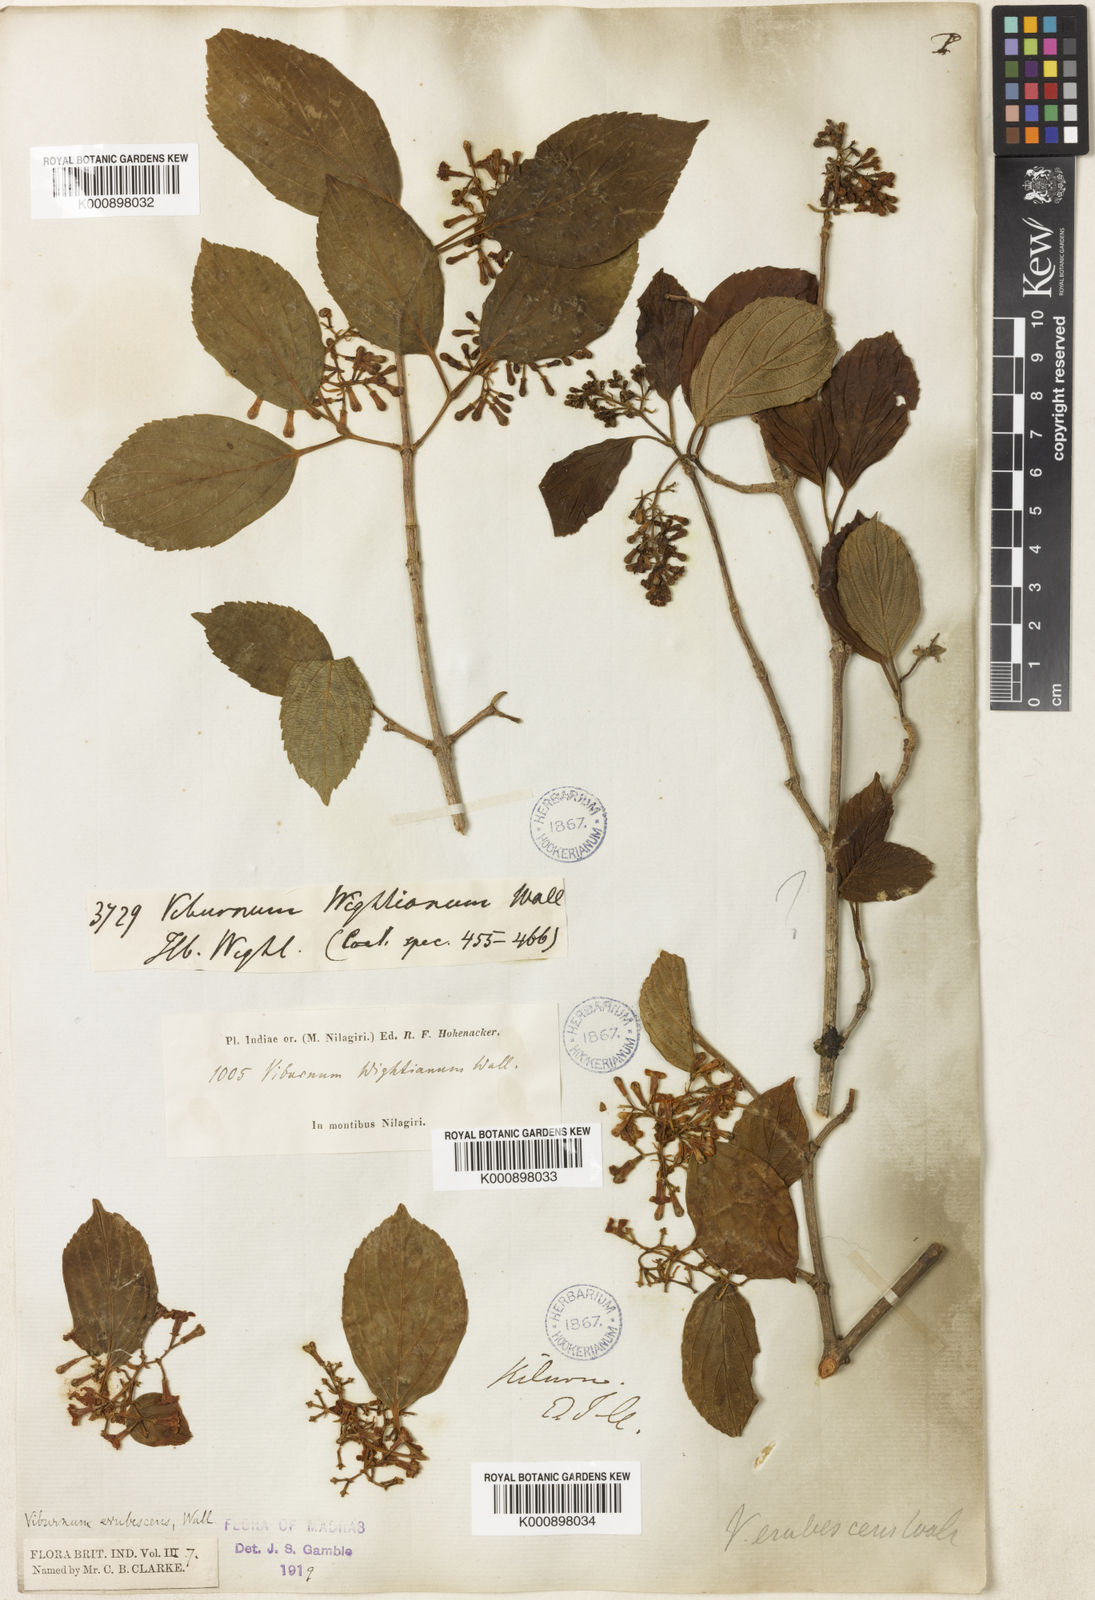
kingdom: Plantae
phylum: Tracheophyta
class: Magnoliopsida
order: Dipsacales
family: Viburnaceae
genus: Viburnum
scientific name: Viburnum
